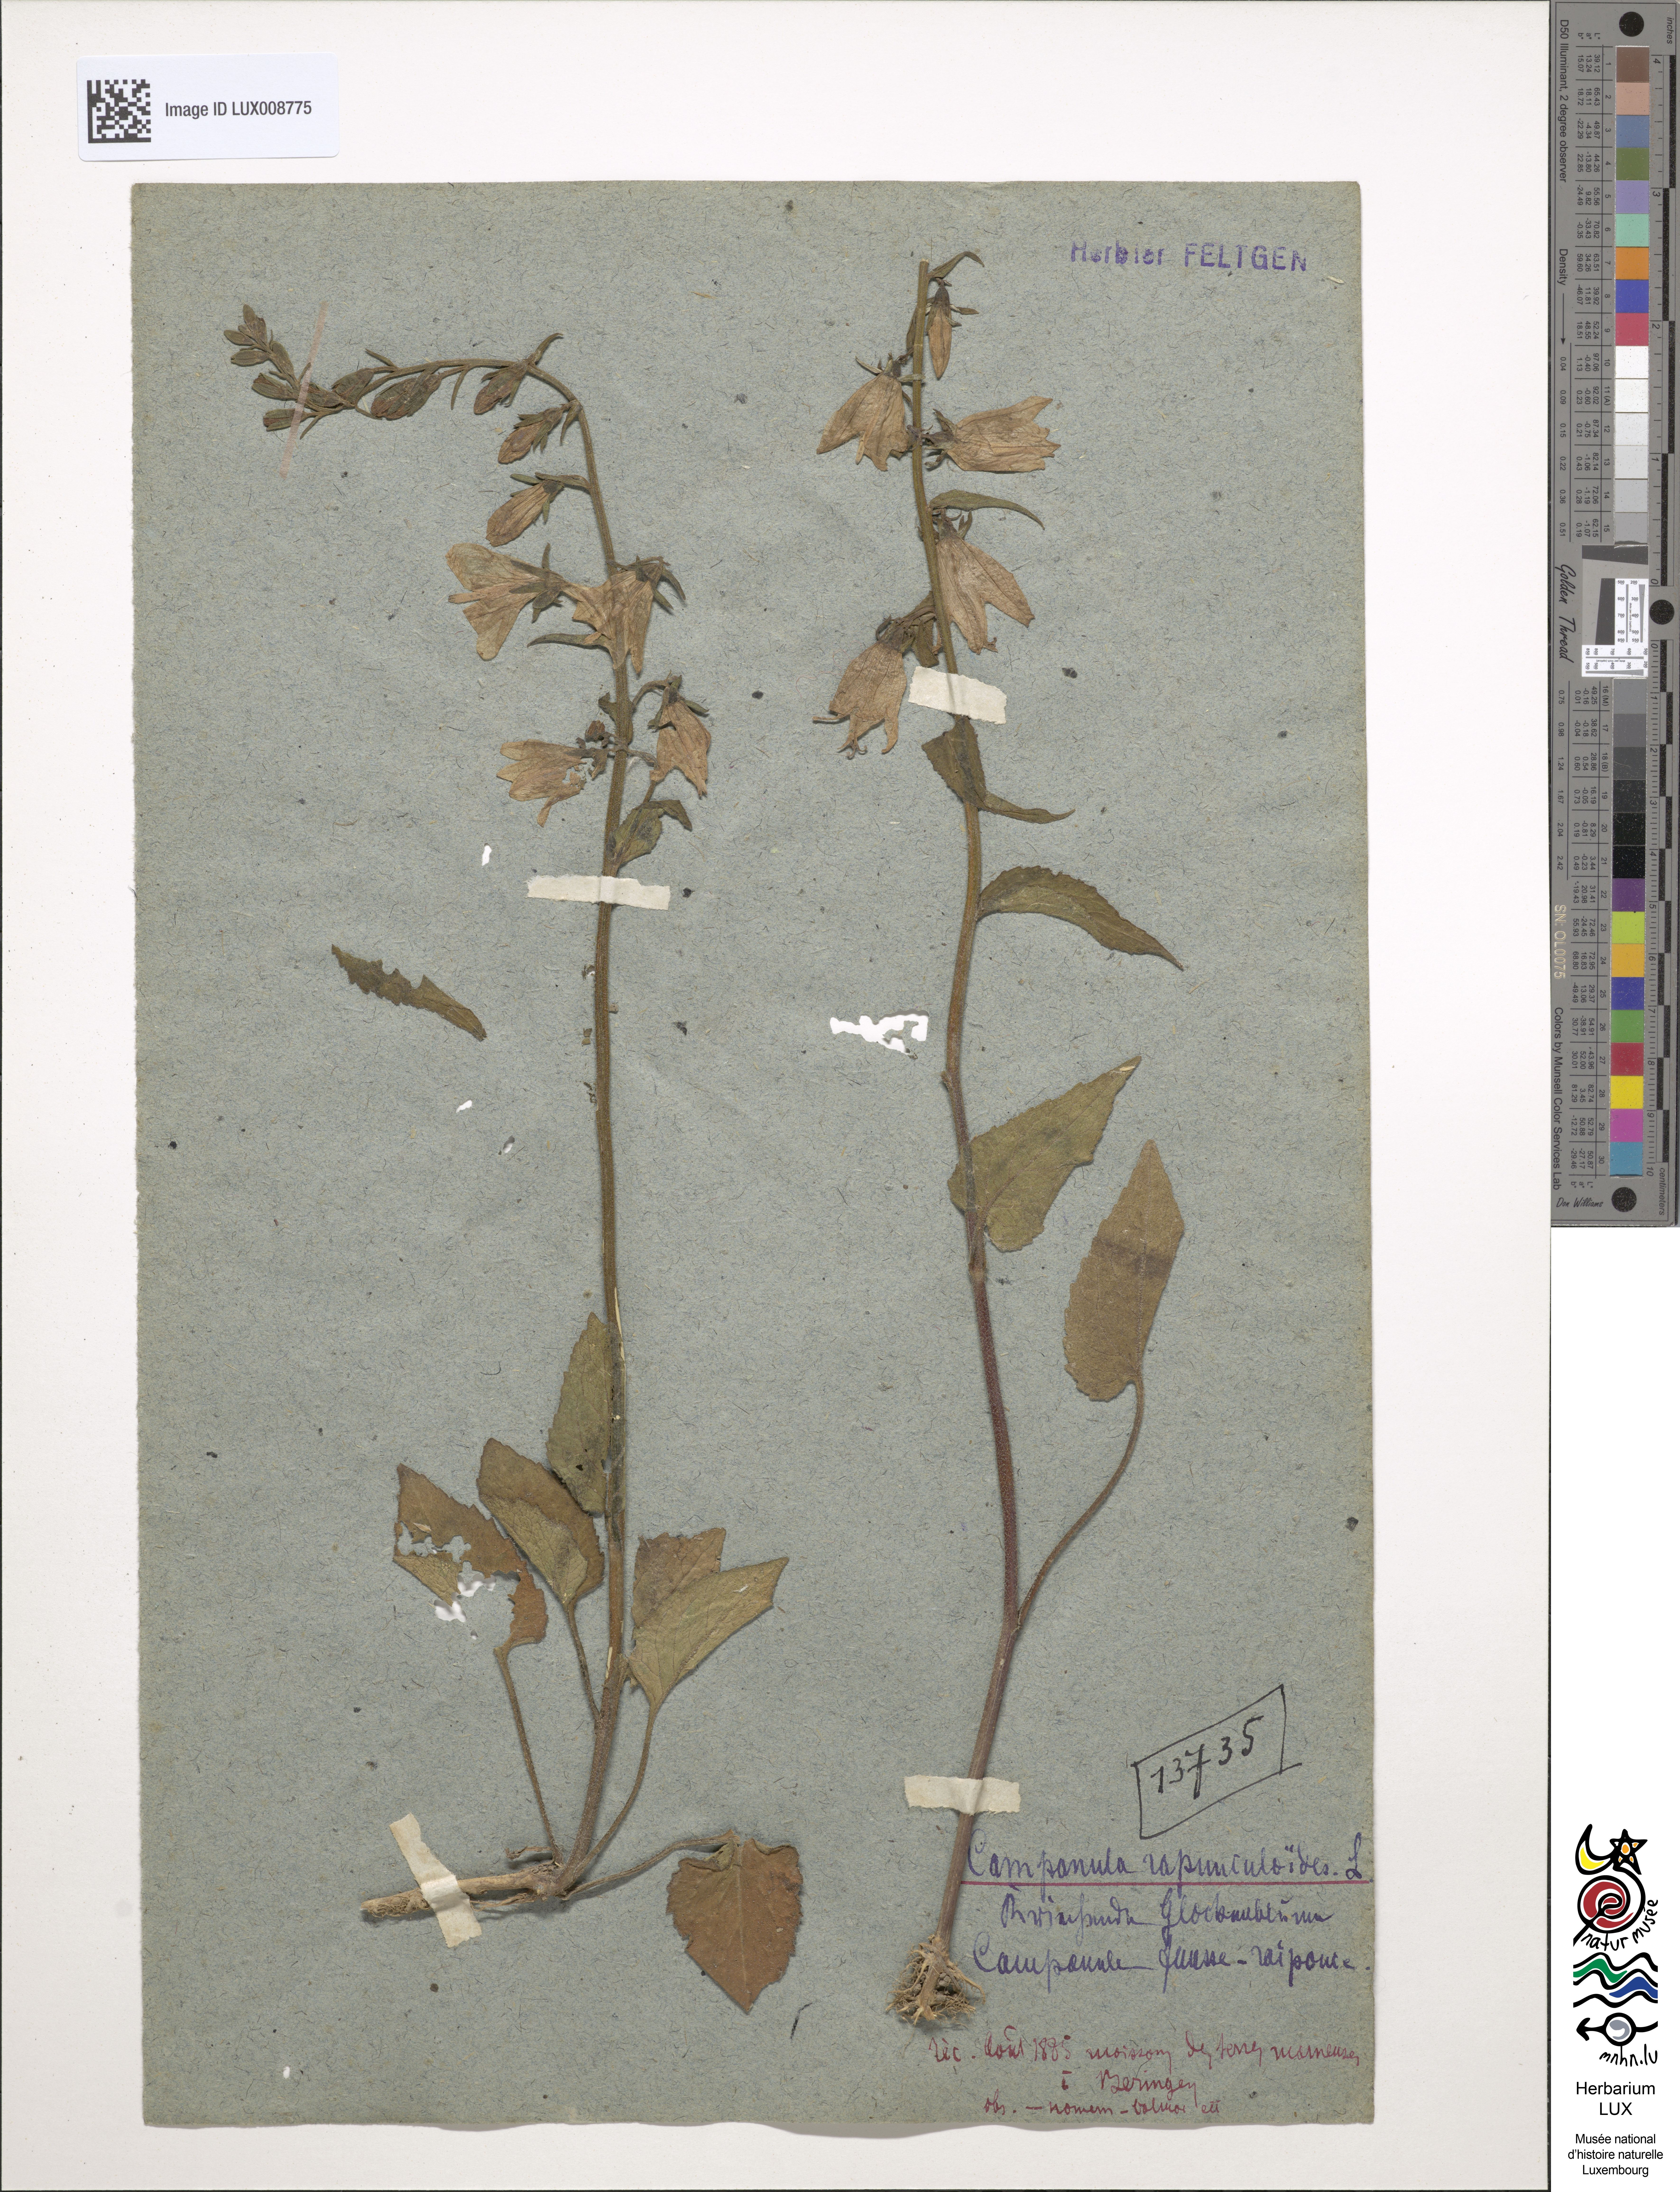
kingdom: Plantae
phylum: Tracheophyta
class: Magnoliopsida
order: Asterales
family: Campanulaceae
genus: Campanula
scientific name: Campanula rapunculoides
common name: Creeping bellflower
